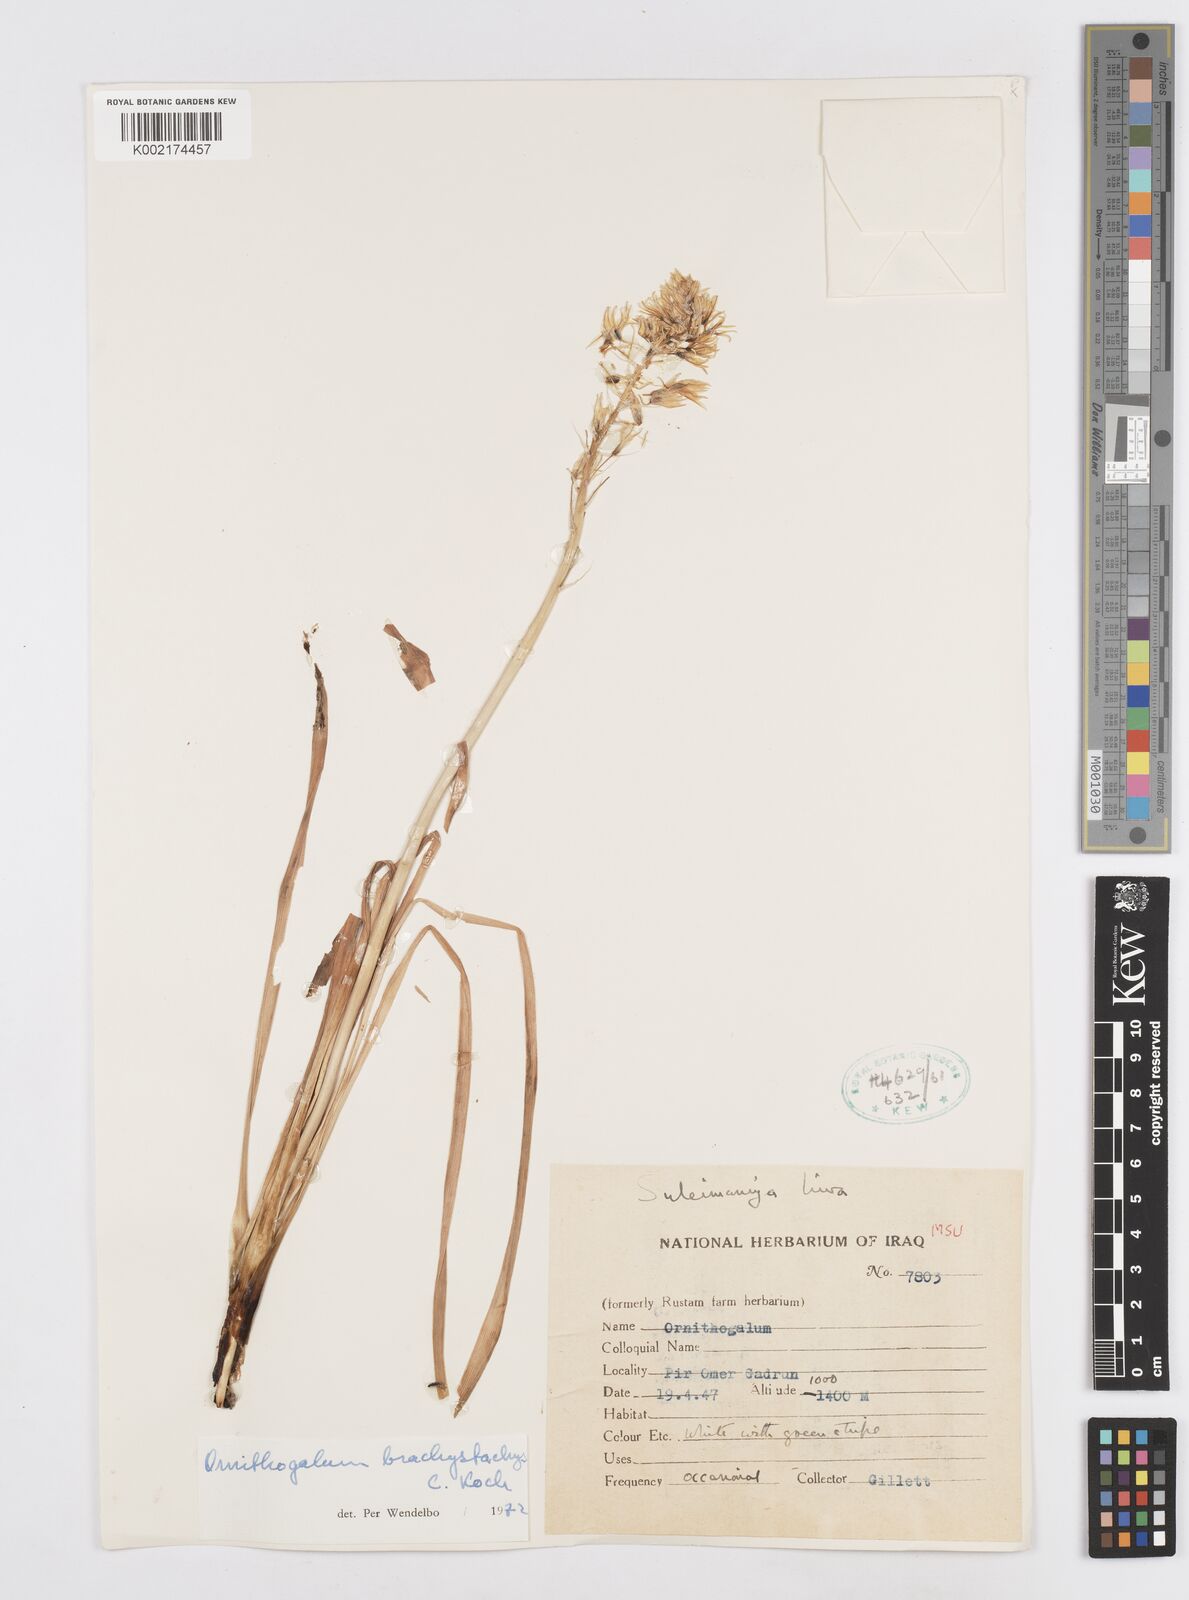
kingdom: Plantae
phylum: Tracheophyta
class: Liliopsida
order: Asparagales
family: Asparagaceae
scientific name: Asparagaceae
